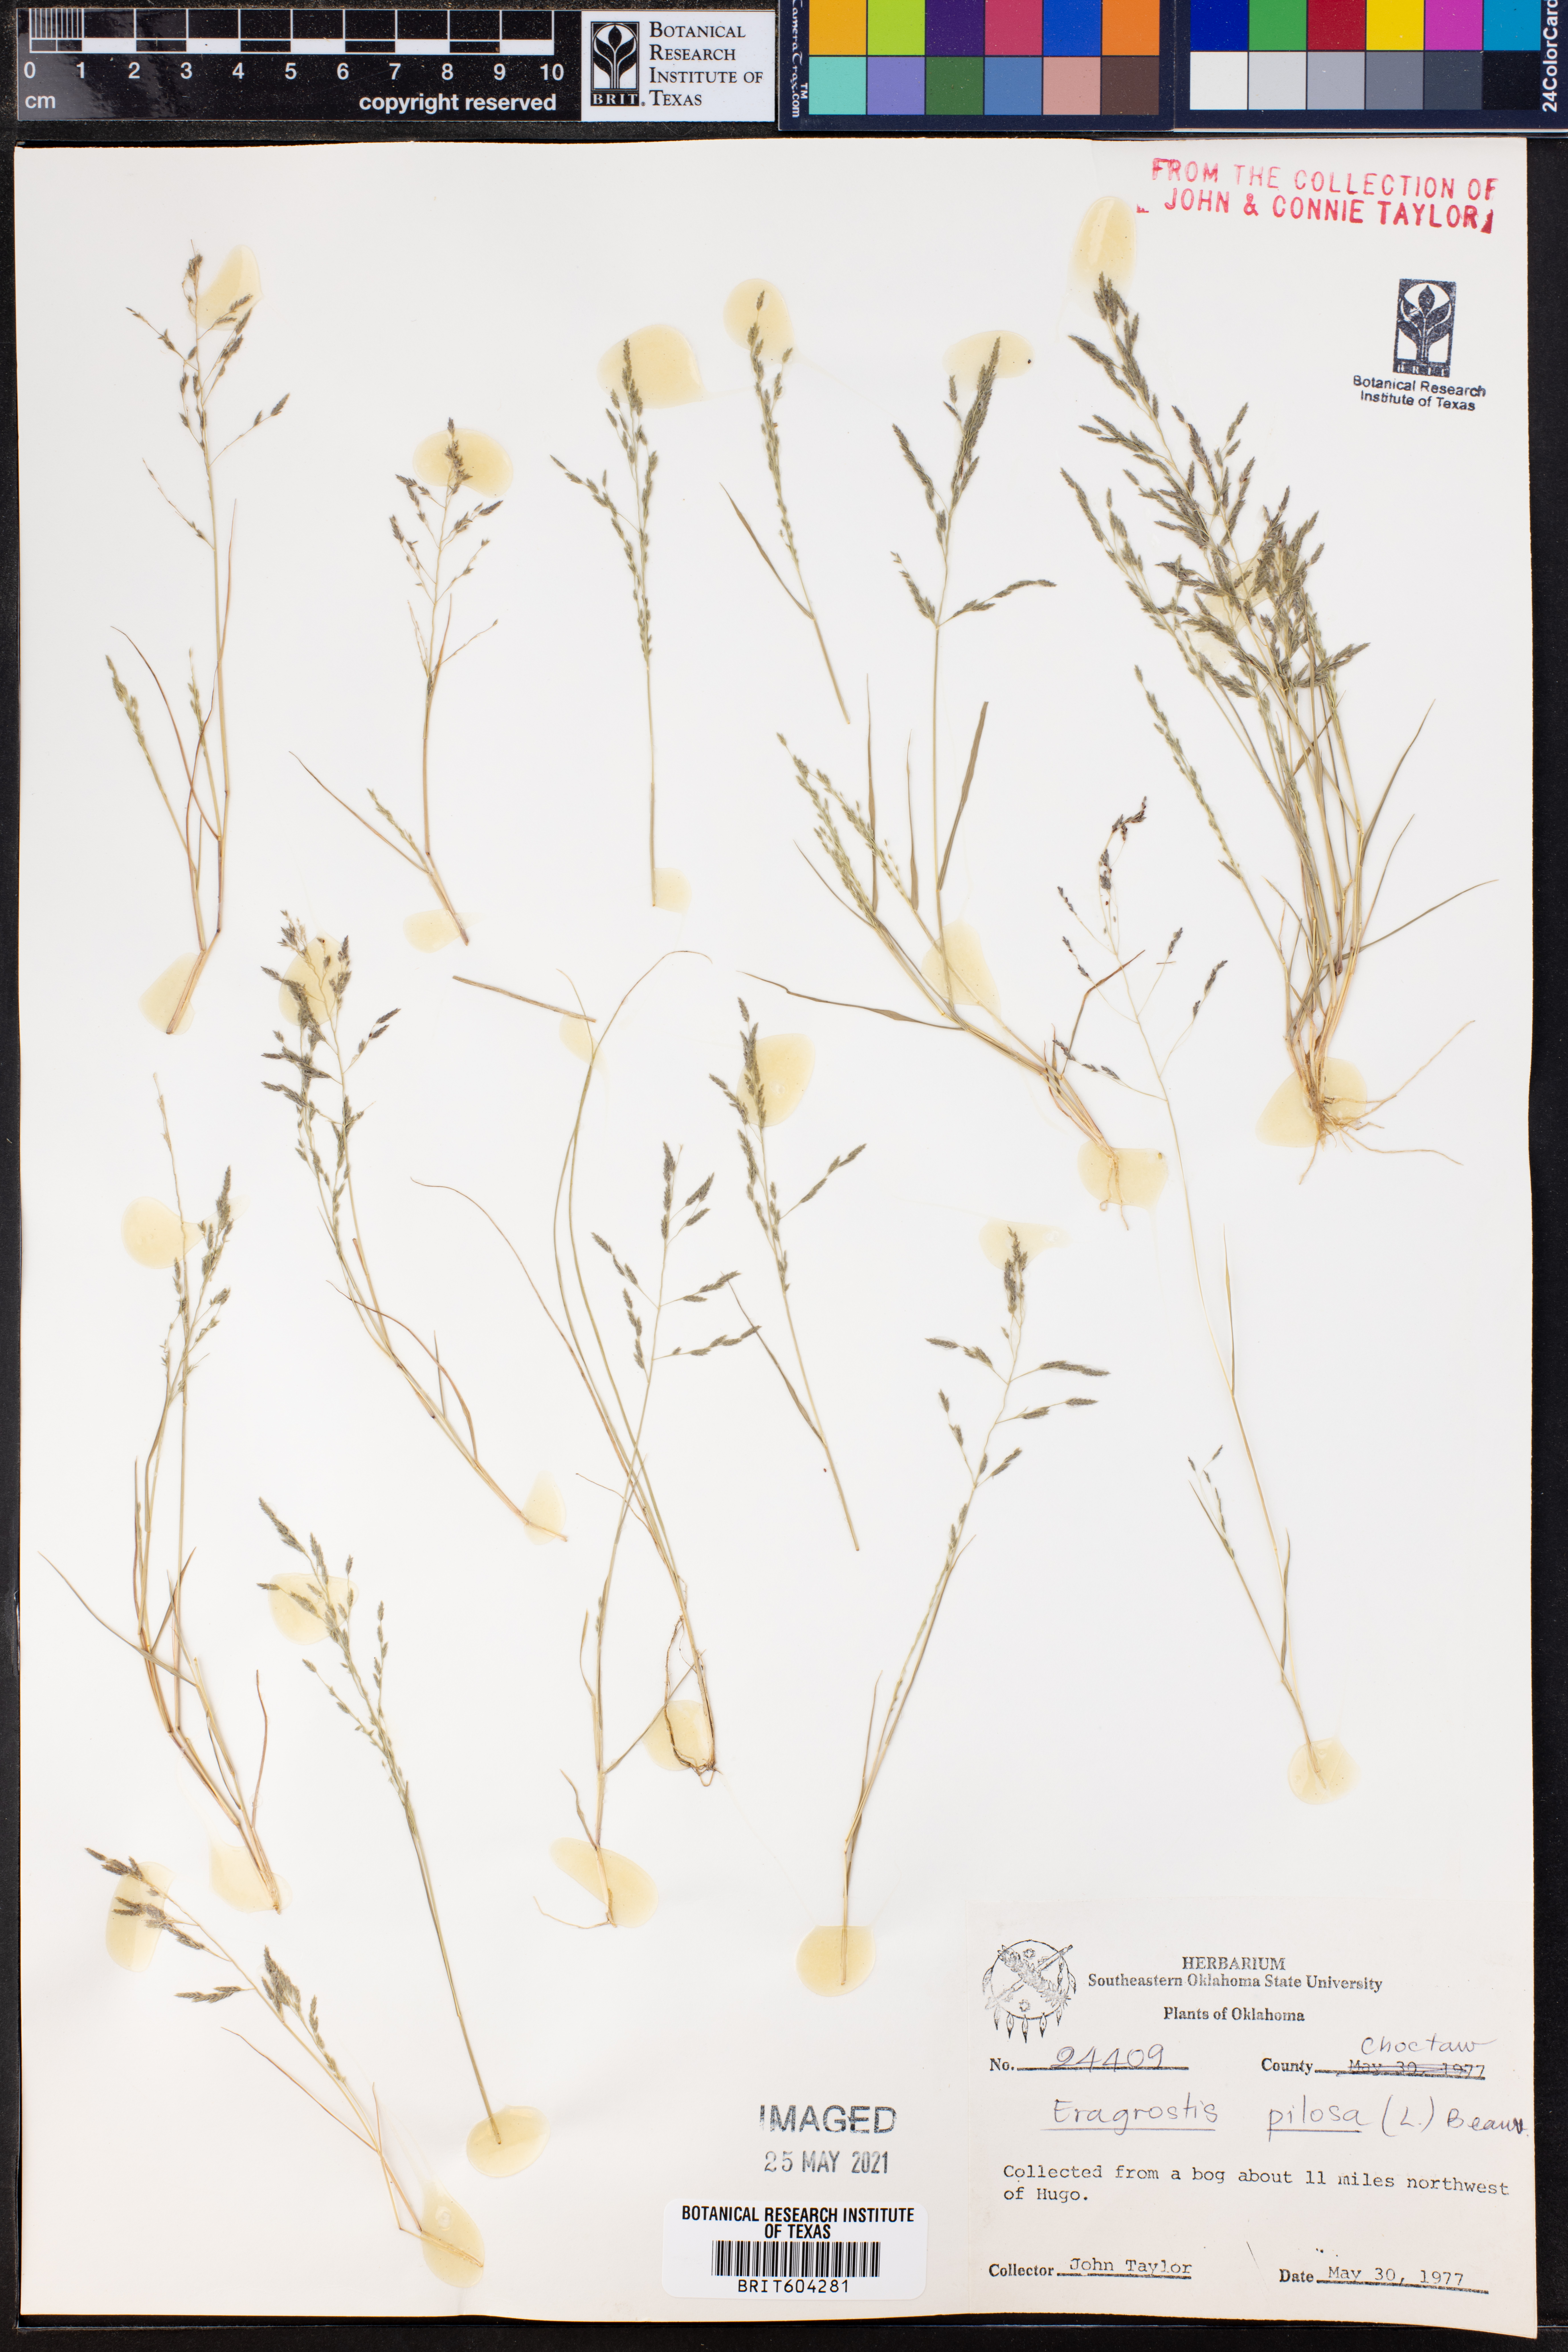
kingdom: Plantae
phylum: Tracheophyta
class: Liliopsida
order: Poales
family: Poaceae
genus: Eragrostis
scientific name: Eragrostis pilosa
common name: Indian lovegrass
